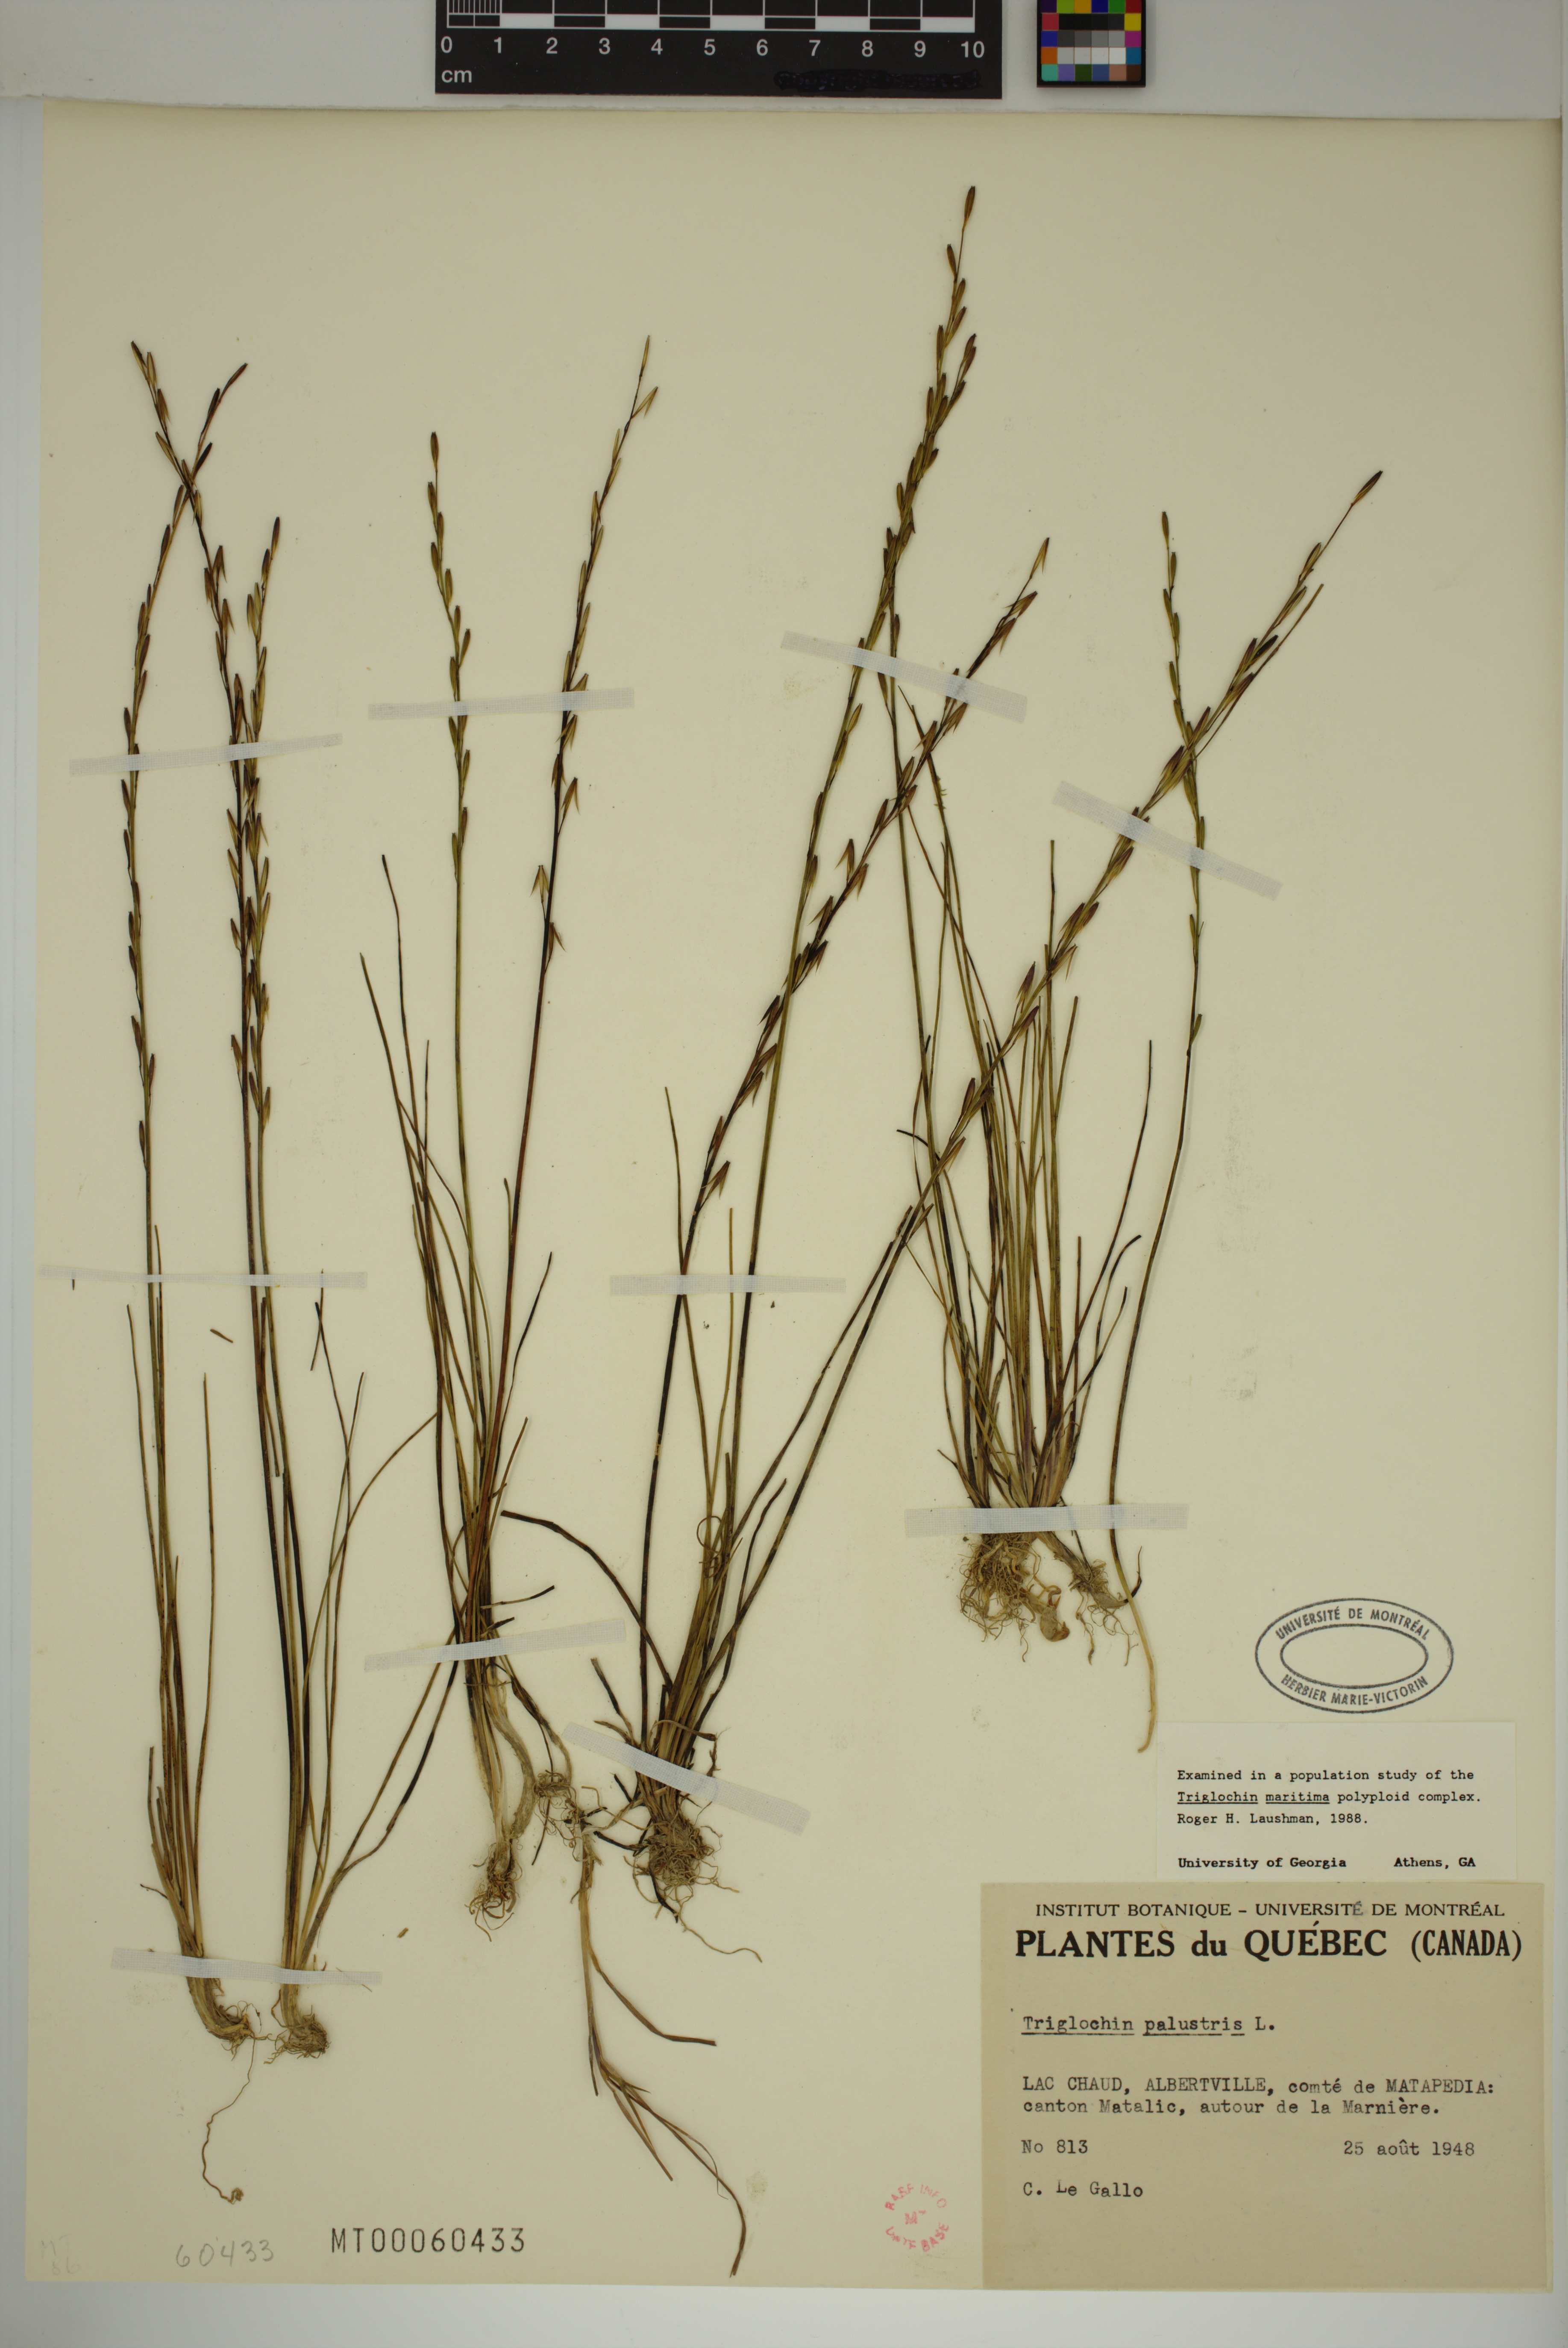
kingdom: Plantae
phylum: Tracheophyta
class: Liliopsida
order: Alismatales
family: Juncaginaceae
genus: Triglochin
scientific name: Triglochin palustris
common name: Marsh arrowgrass
